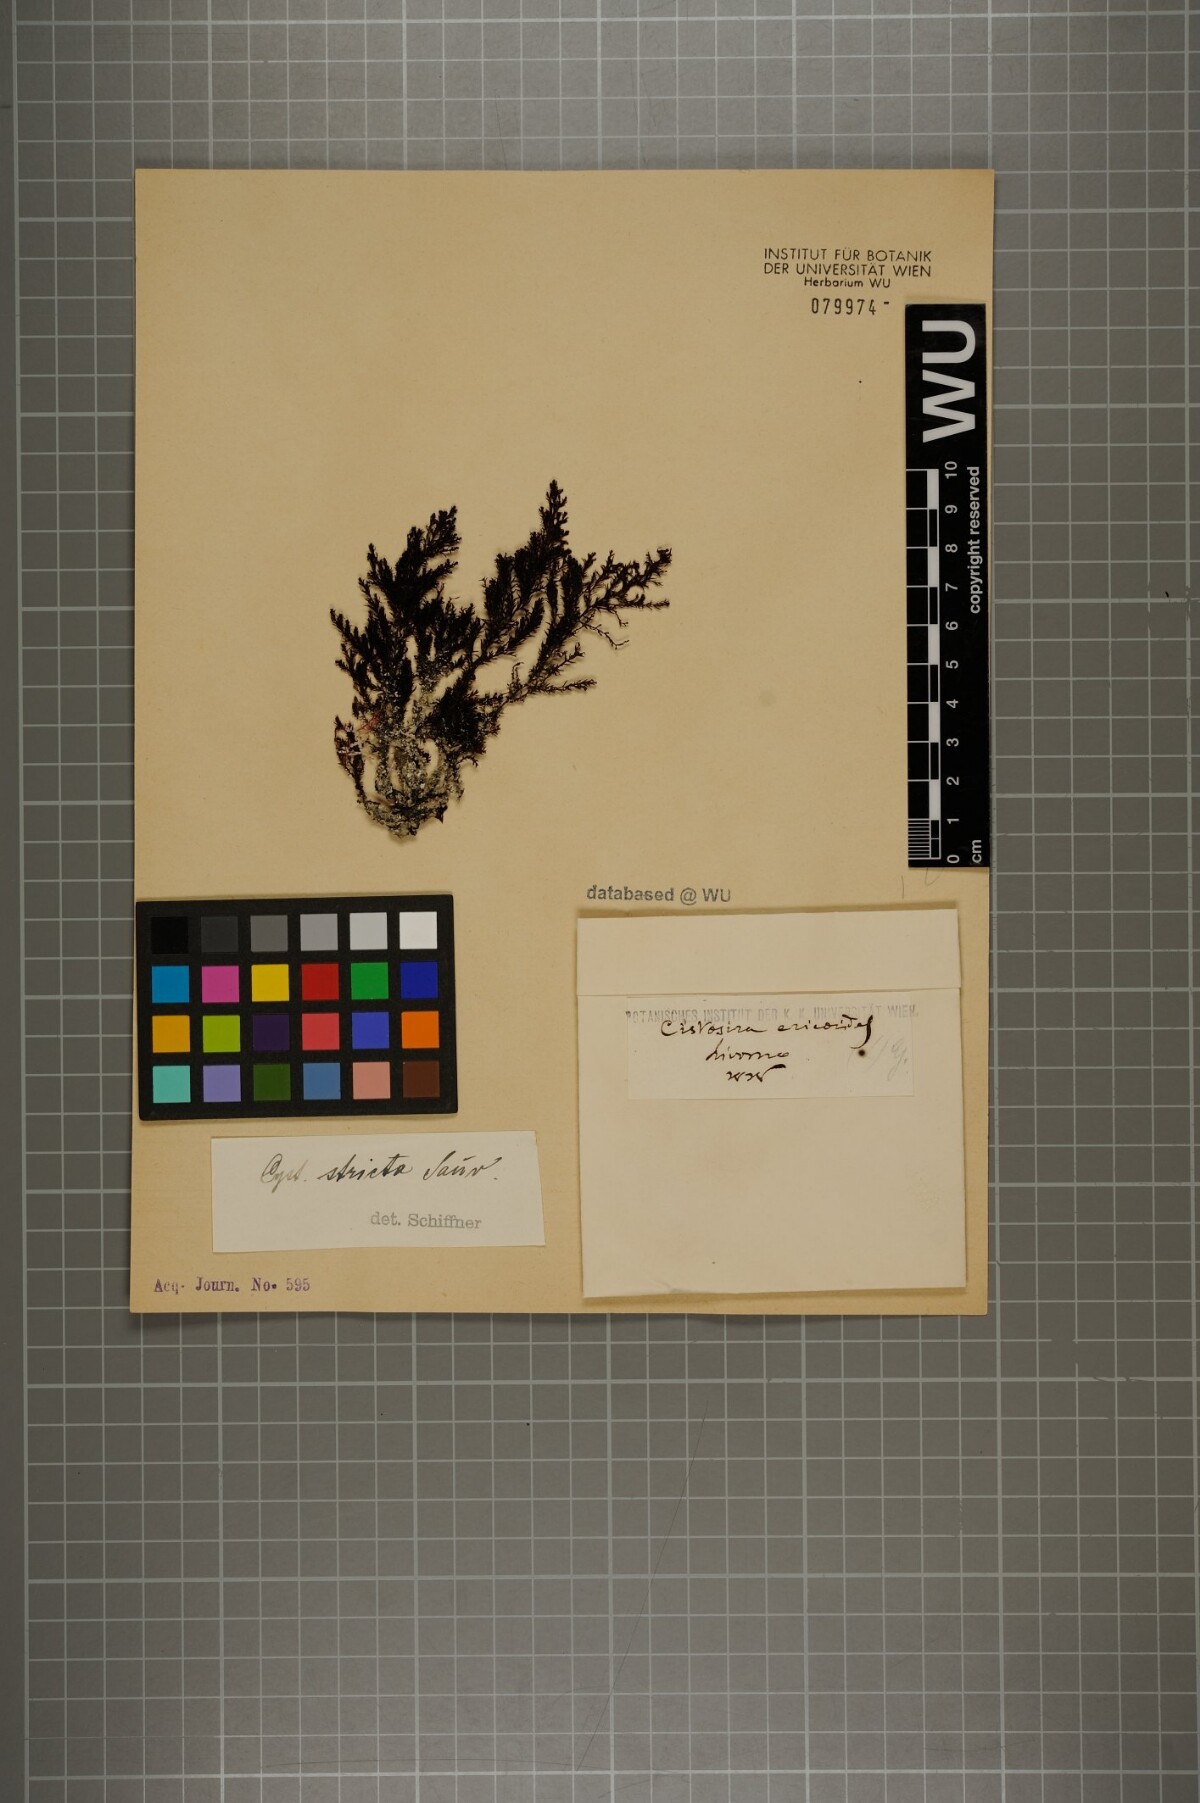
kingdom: Chromista
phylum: Ochrophyta
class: Phaeophyceae
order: Fucales
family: Sargassaceae
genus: Cystoseira
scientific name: Cystoseira Ericaria amentacea
